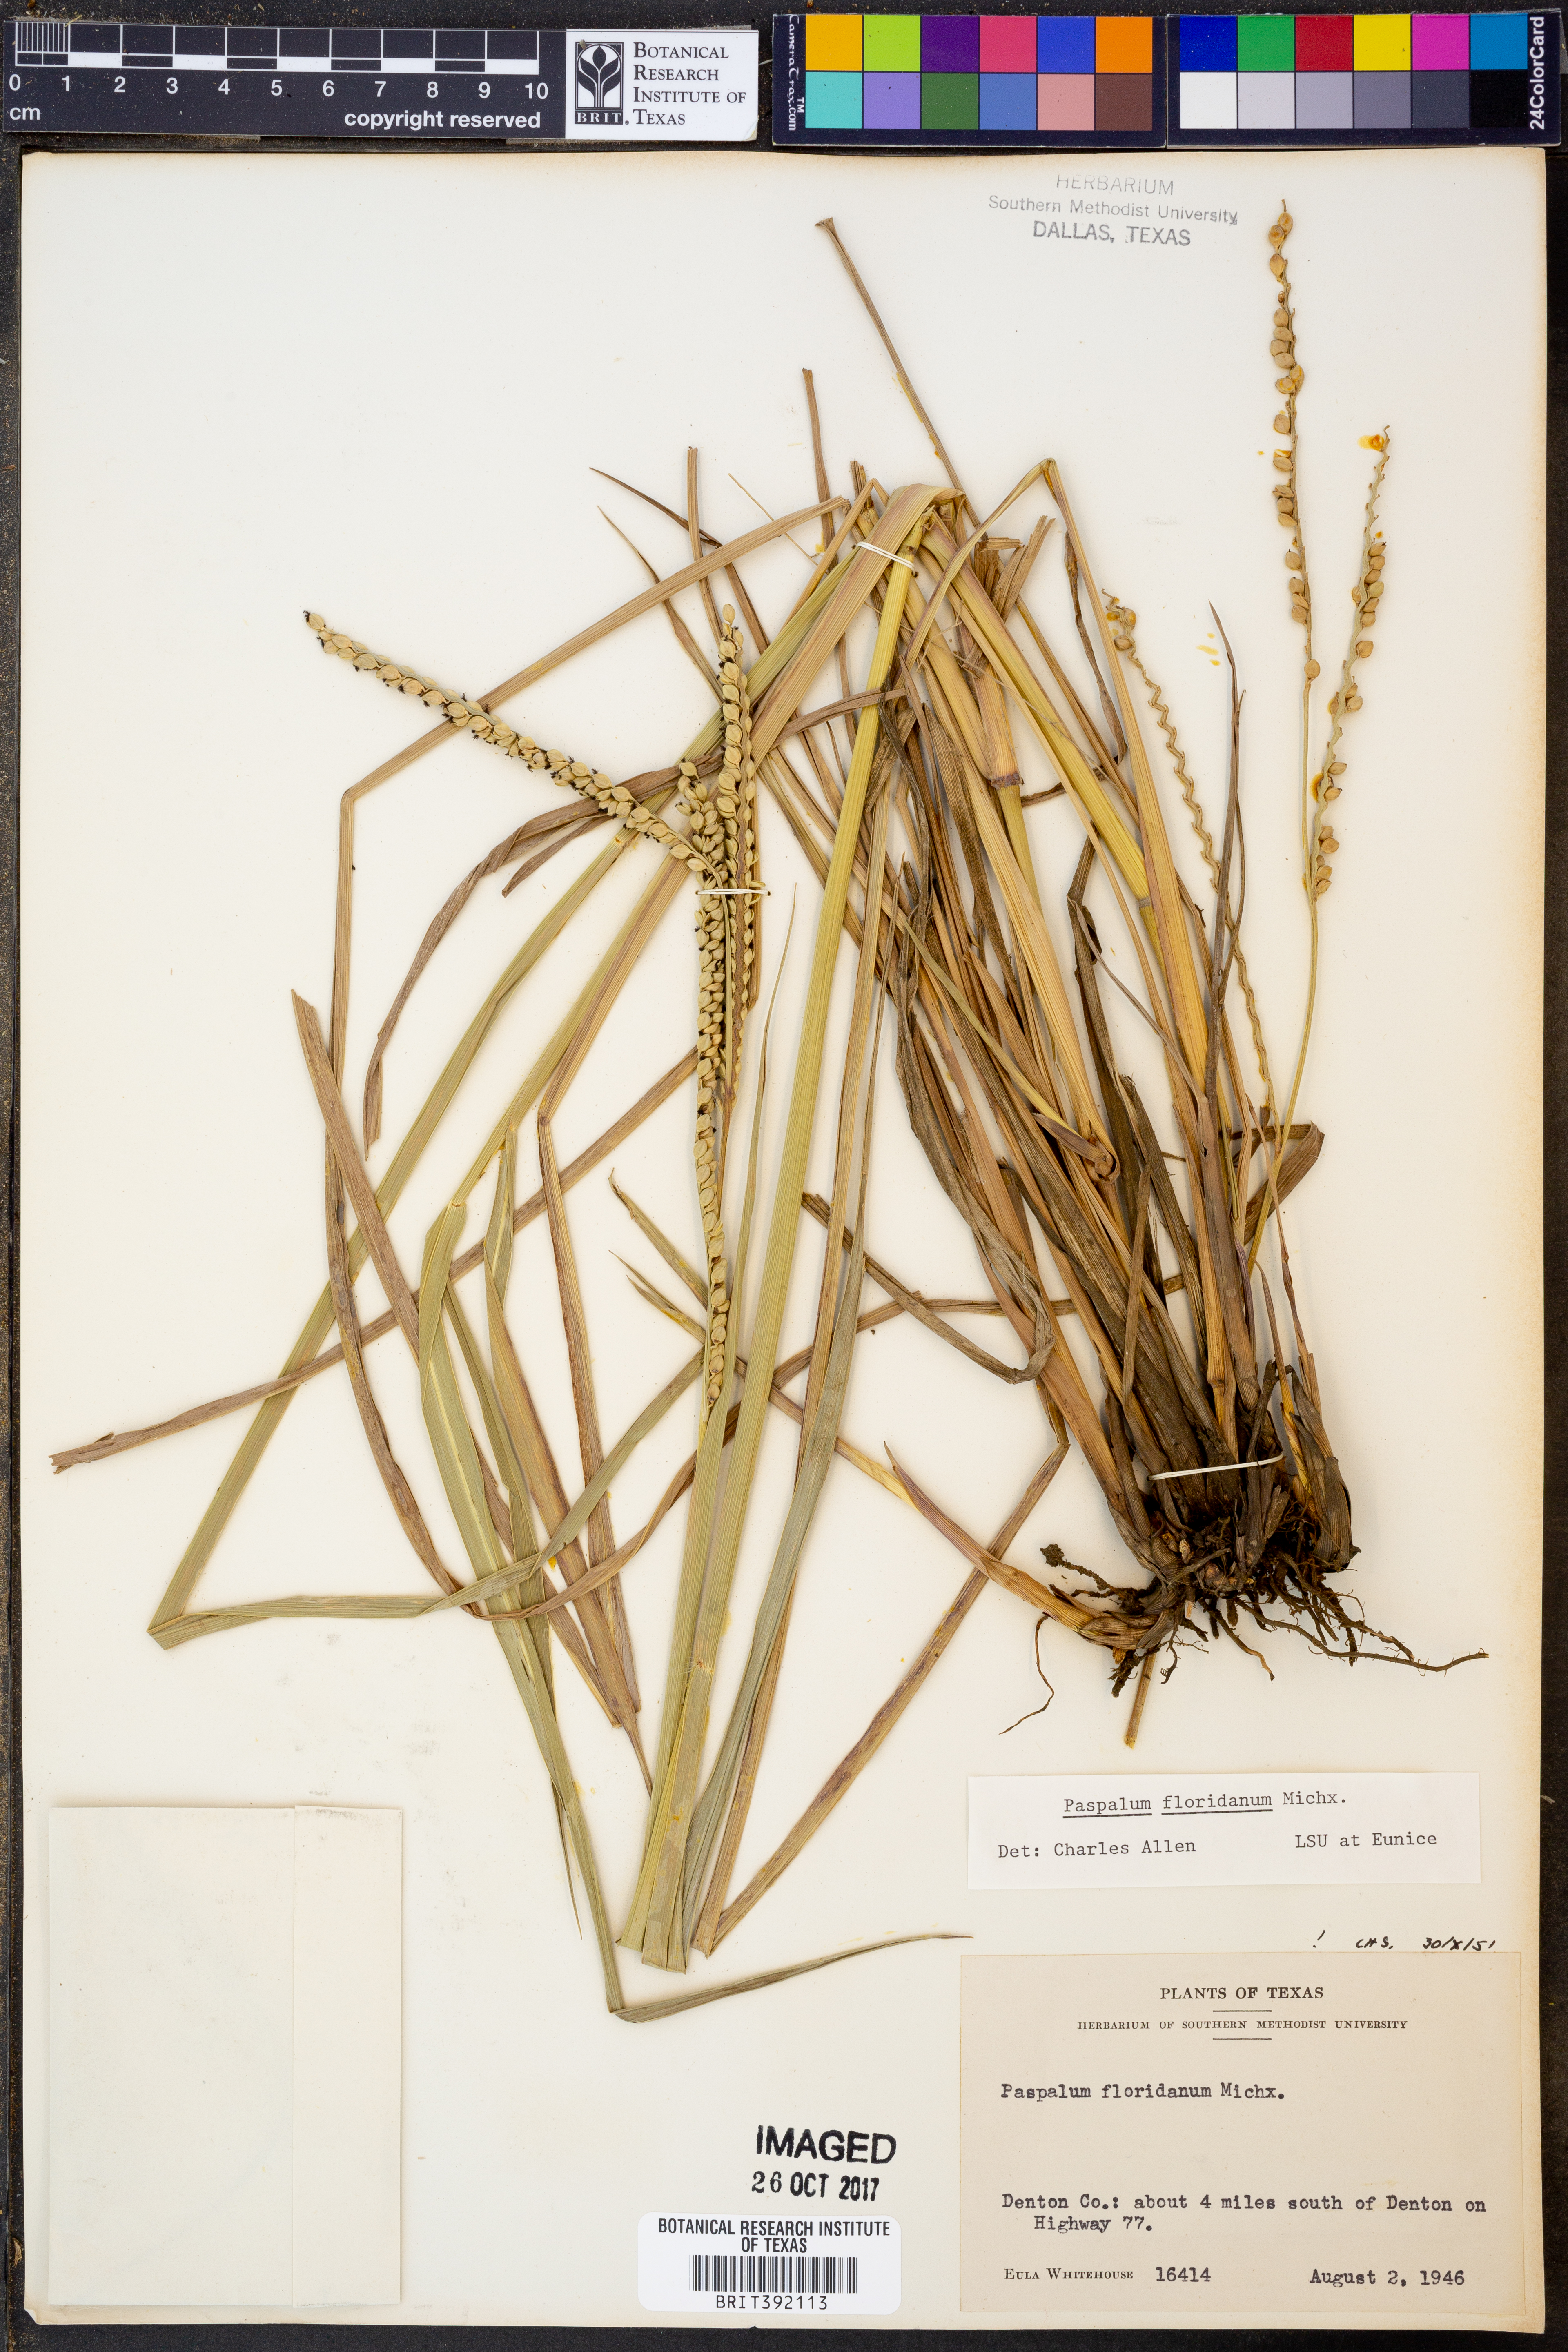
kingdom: Plantae
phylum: Tracheophyta
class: Liliopsida
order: Poales
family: Poaceae
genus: Paspalum
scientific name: Paspalum floridanum
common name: Florida paspalum
